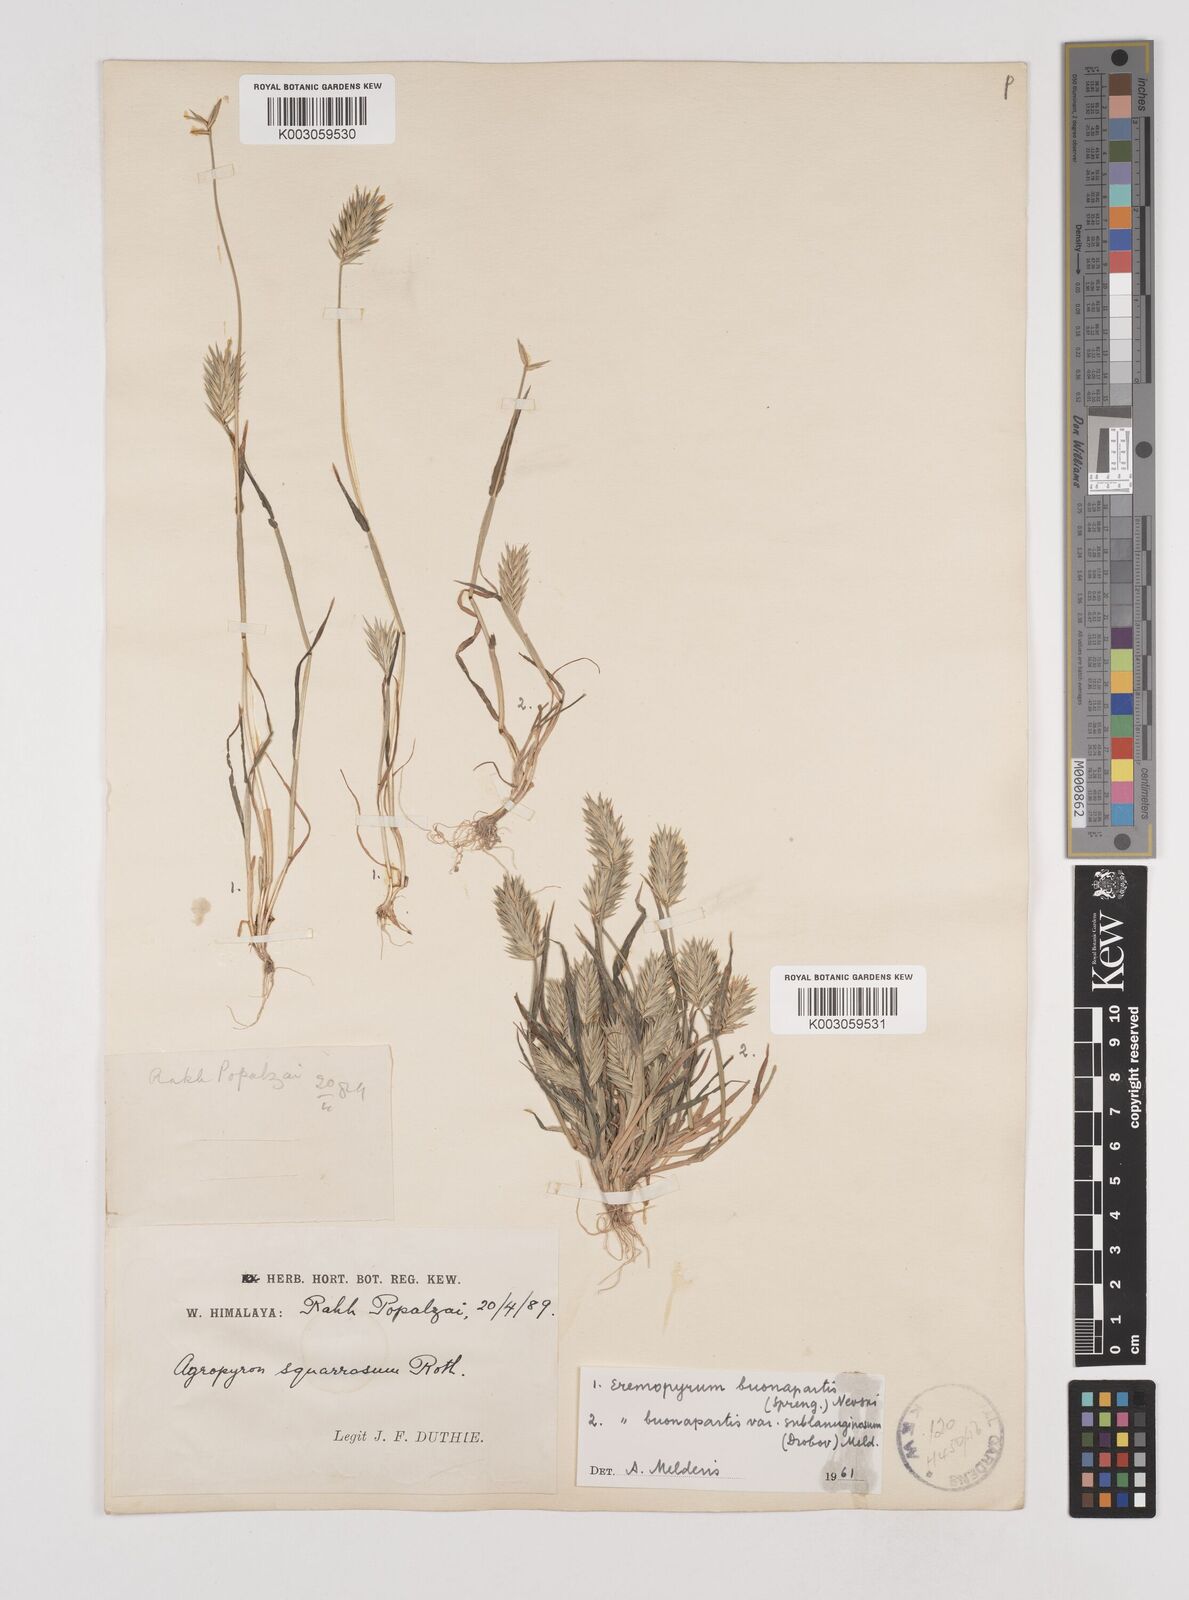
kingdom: Plantae
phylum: Tracheophyta
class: Liliopsida
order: Poales
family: Poaceae
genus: Eremopyrum
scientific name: Eremopyrum bonaepartis
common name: Tapertip false wheatgrass
